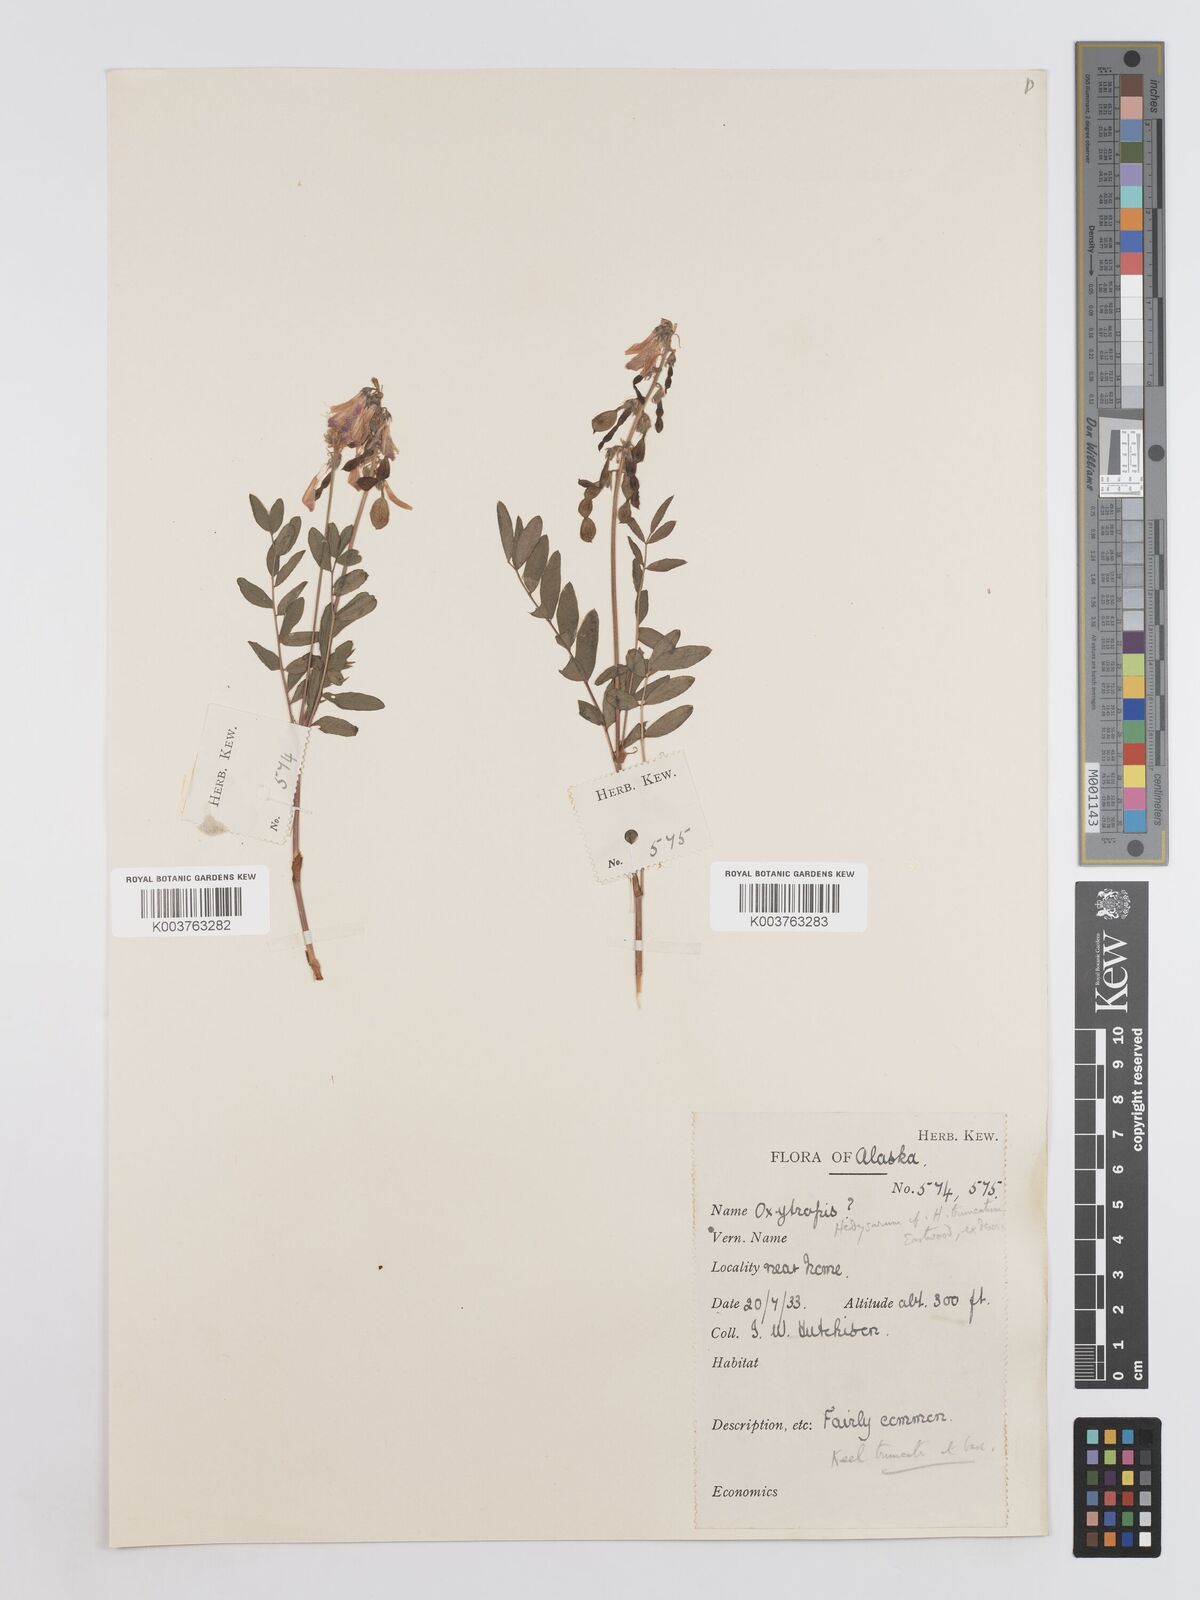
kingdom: Plantae
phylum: Tracheophyta
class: Magnoliopsida
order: Fabales
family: Fabaceae
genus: Hedysarum
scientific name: Hedysarum alpinum
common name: Alpine sweet-vetch
